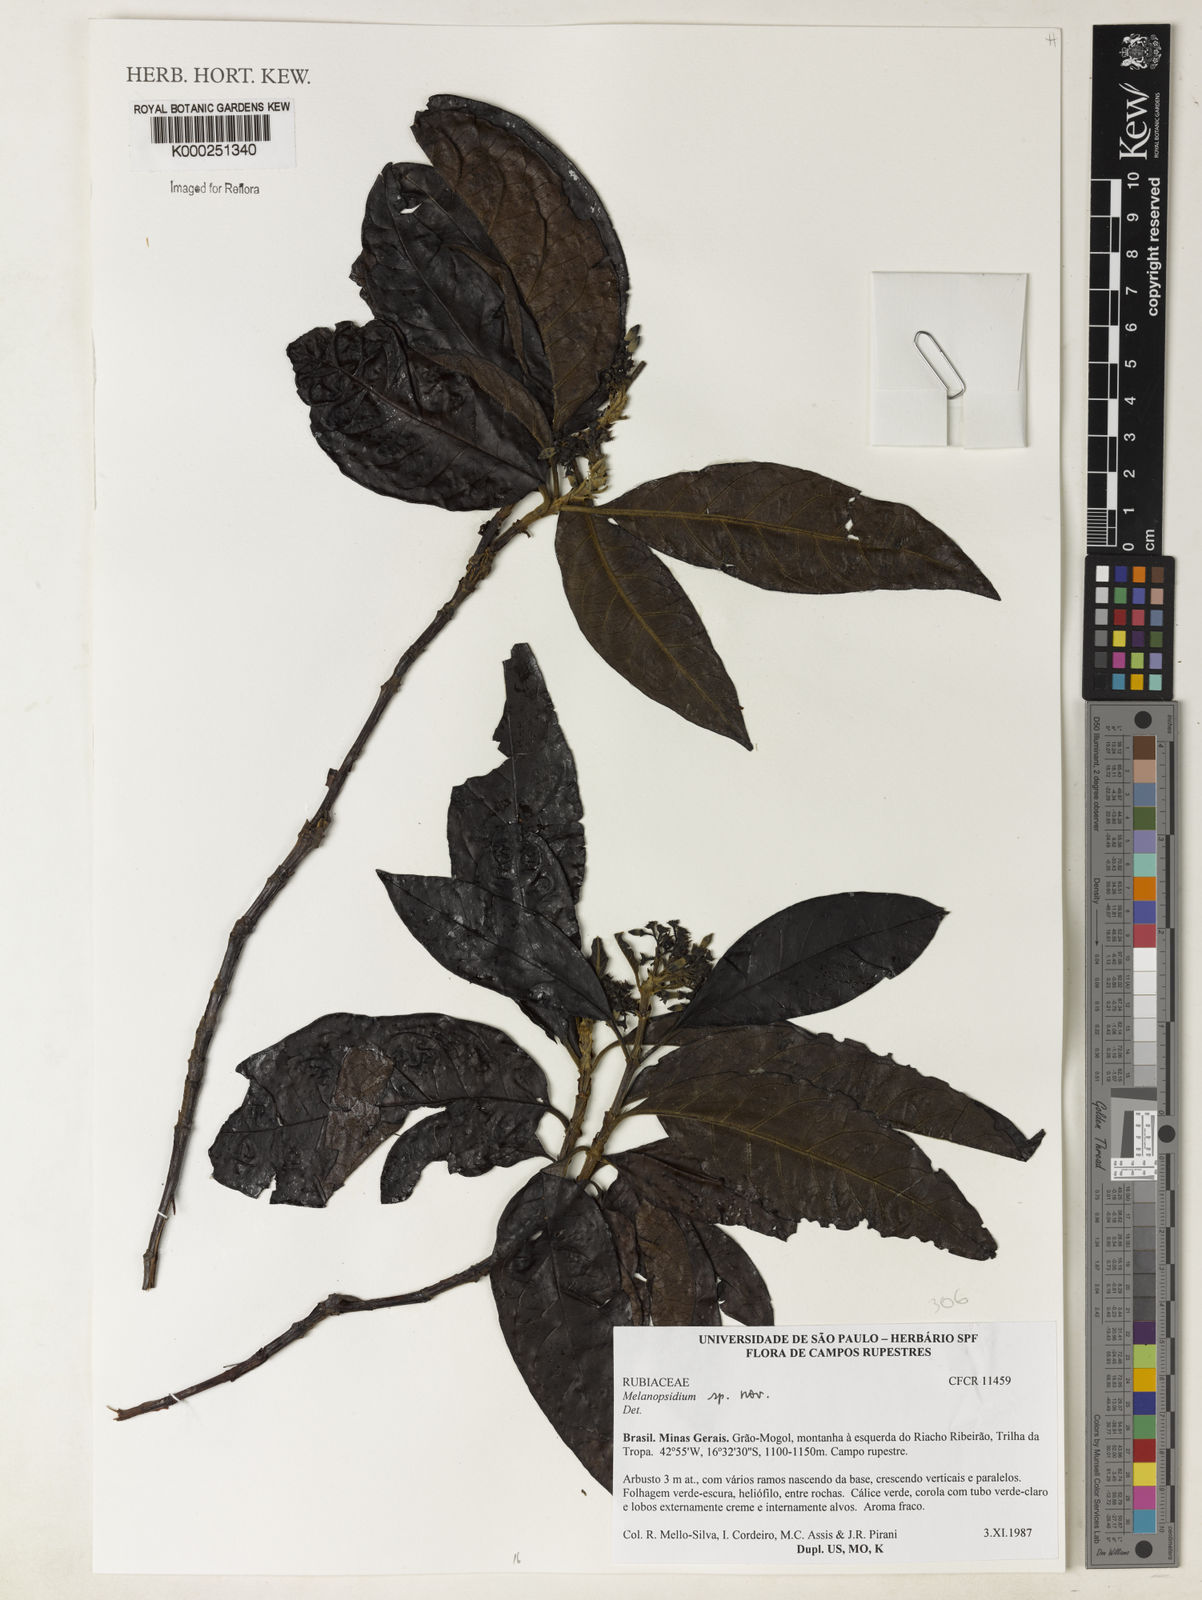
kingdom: Plantae
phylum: Tracheophyta
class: Magnoliopsida
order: Gentianales
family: Rubiaceae
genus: Melanopsidium
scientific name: Melanopsidium
